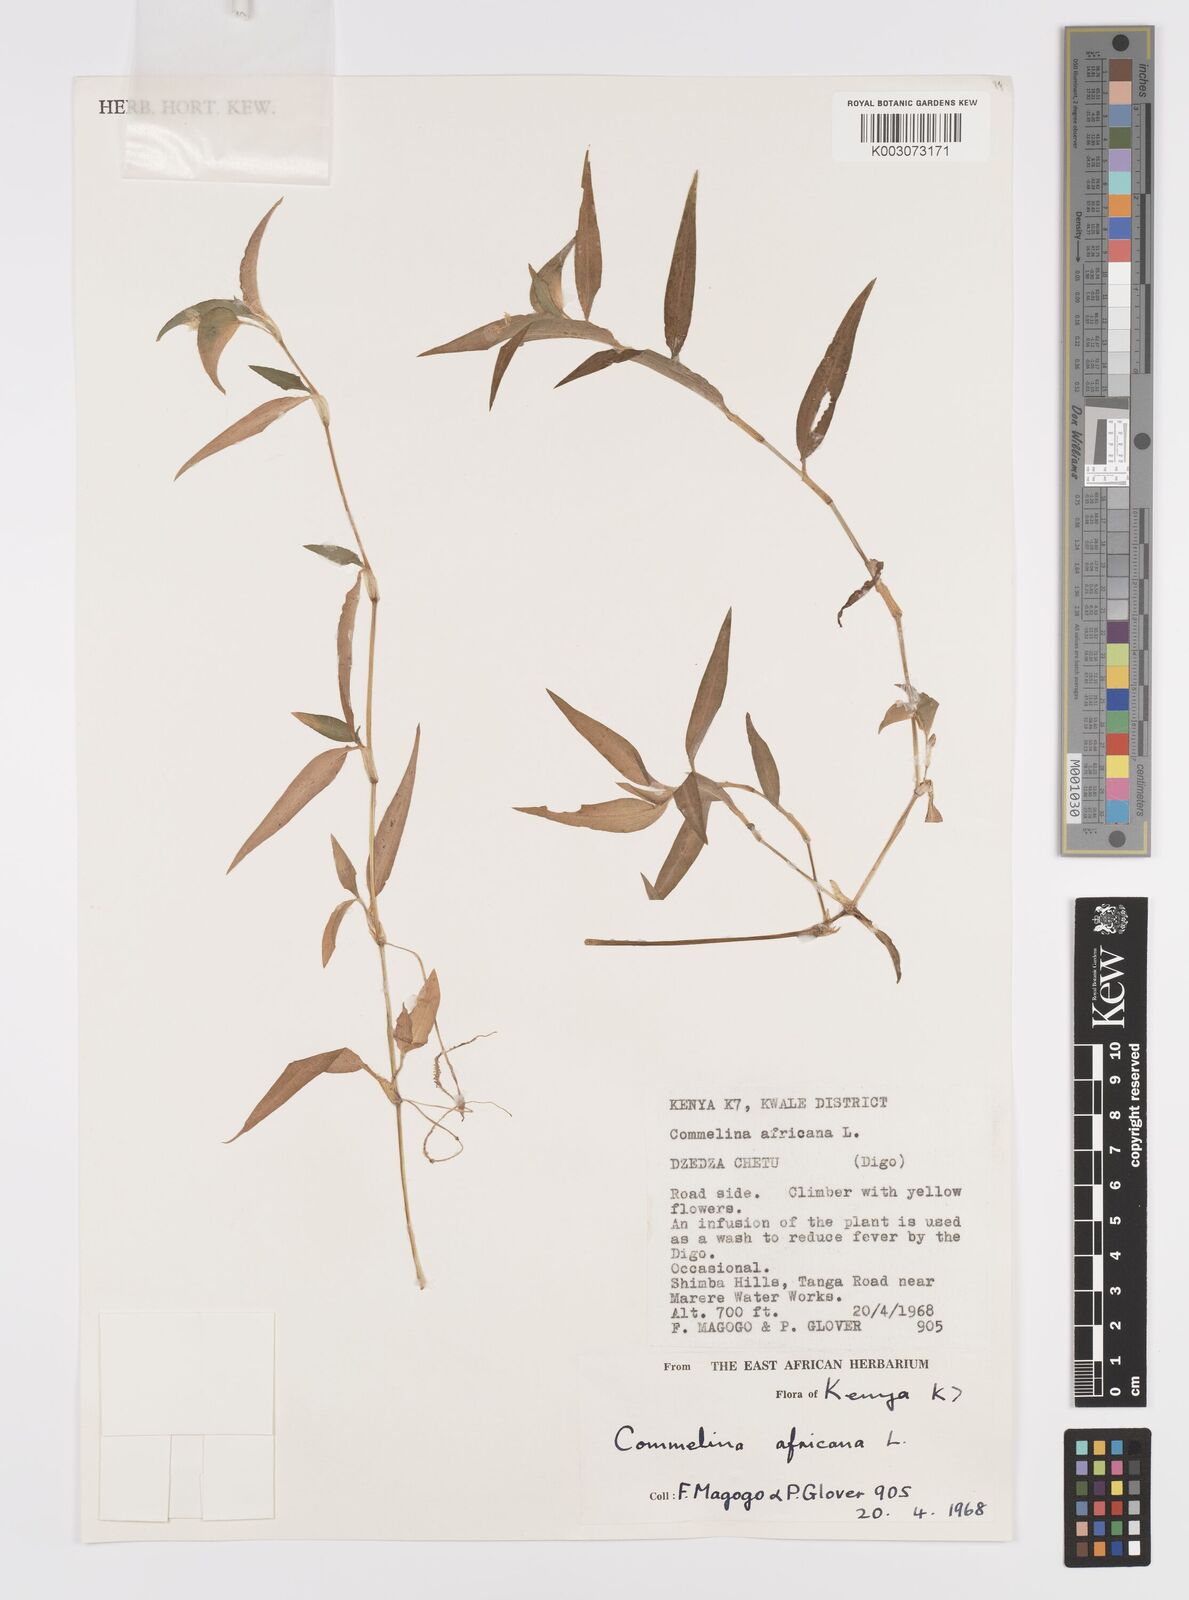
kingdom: Plantae
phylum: Tracheophyta
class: Liliopsida
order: Commelinales
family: Commelinaceae
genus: Commelina
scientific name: Commelina africana
